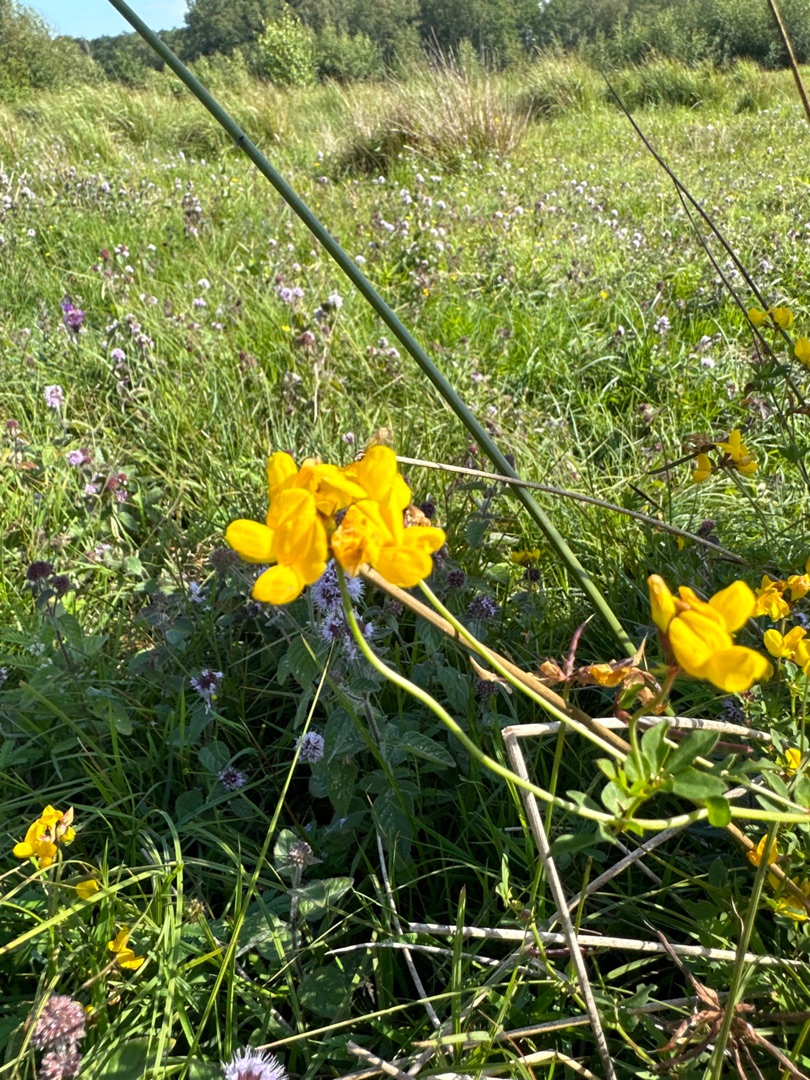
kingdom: Plantae
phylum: Tracheophyta
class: Magnoliopsida
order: Fabales
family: Fabaceae
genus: Lotus
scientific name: Lotus
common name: Kællingetandslægten
